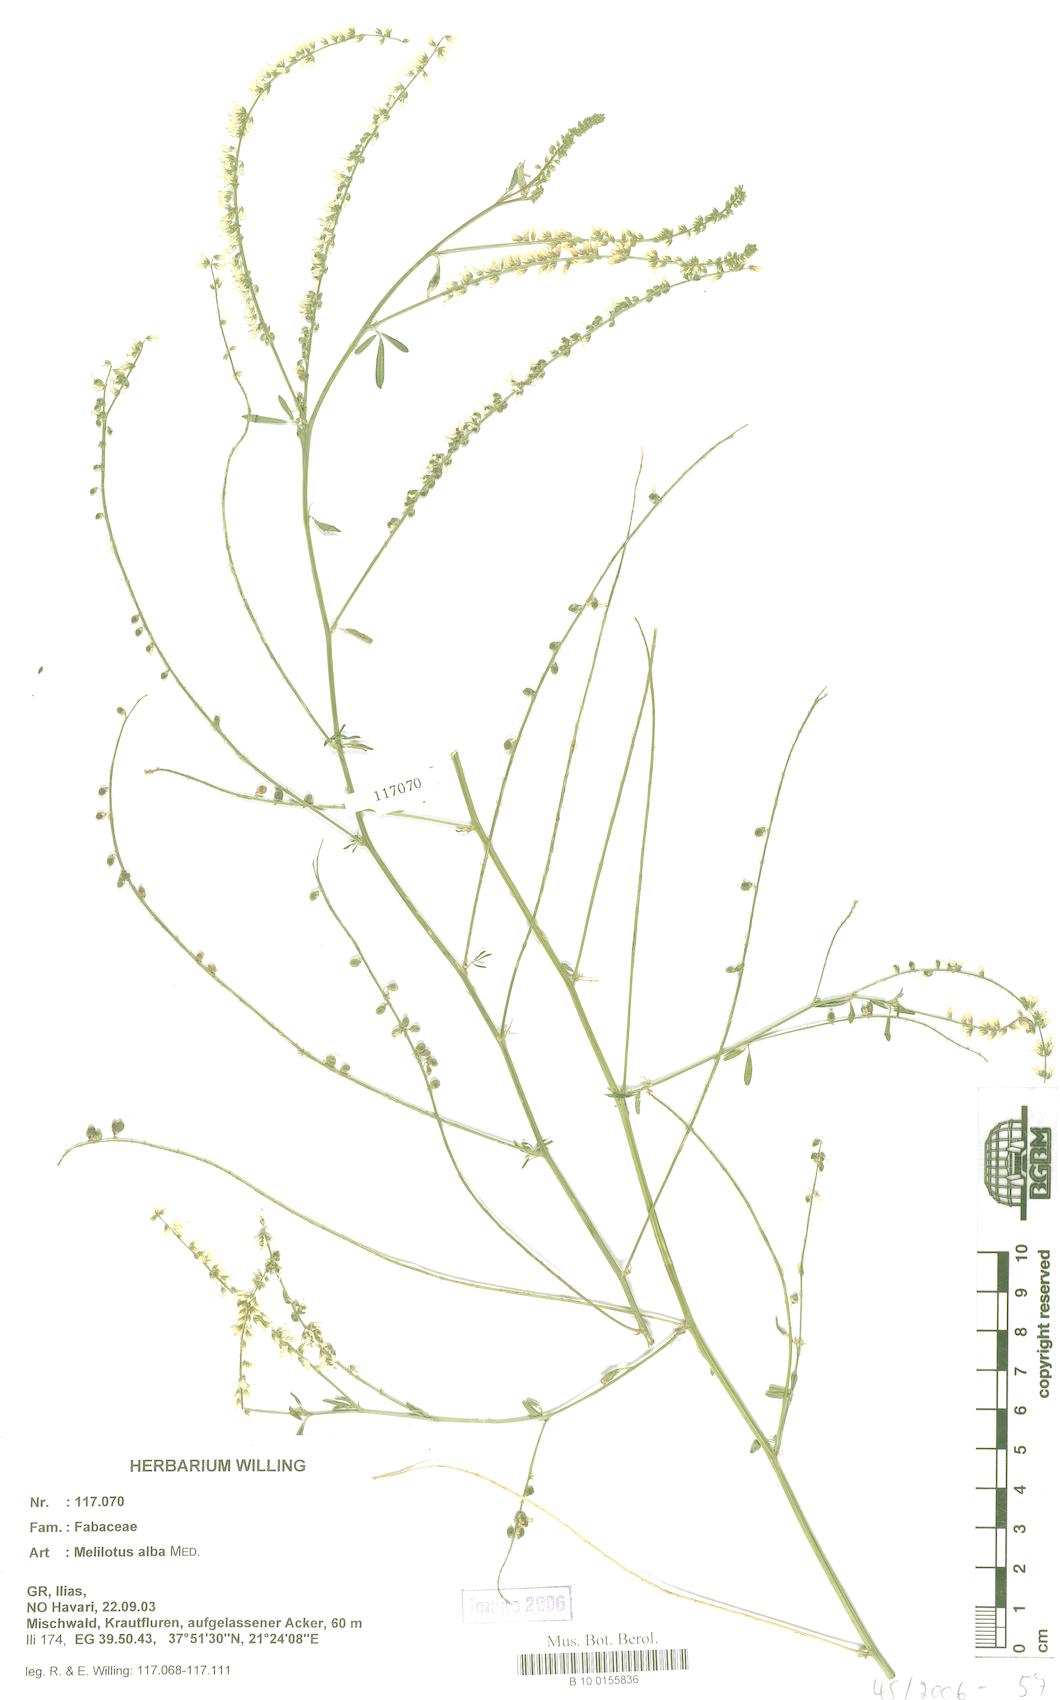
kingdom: Plantae
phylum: Tracheophyta
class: Magnoliopsida
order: Fabales
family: Fabaceae
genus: Melilotus
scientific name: Melilotus albus
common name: White melilot
